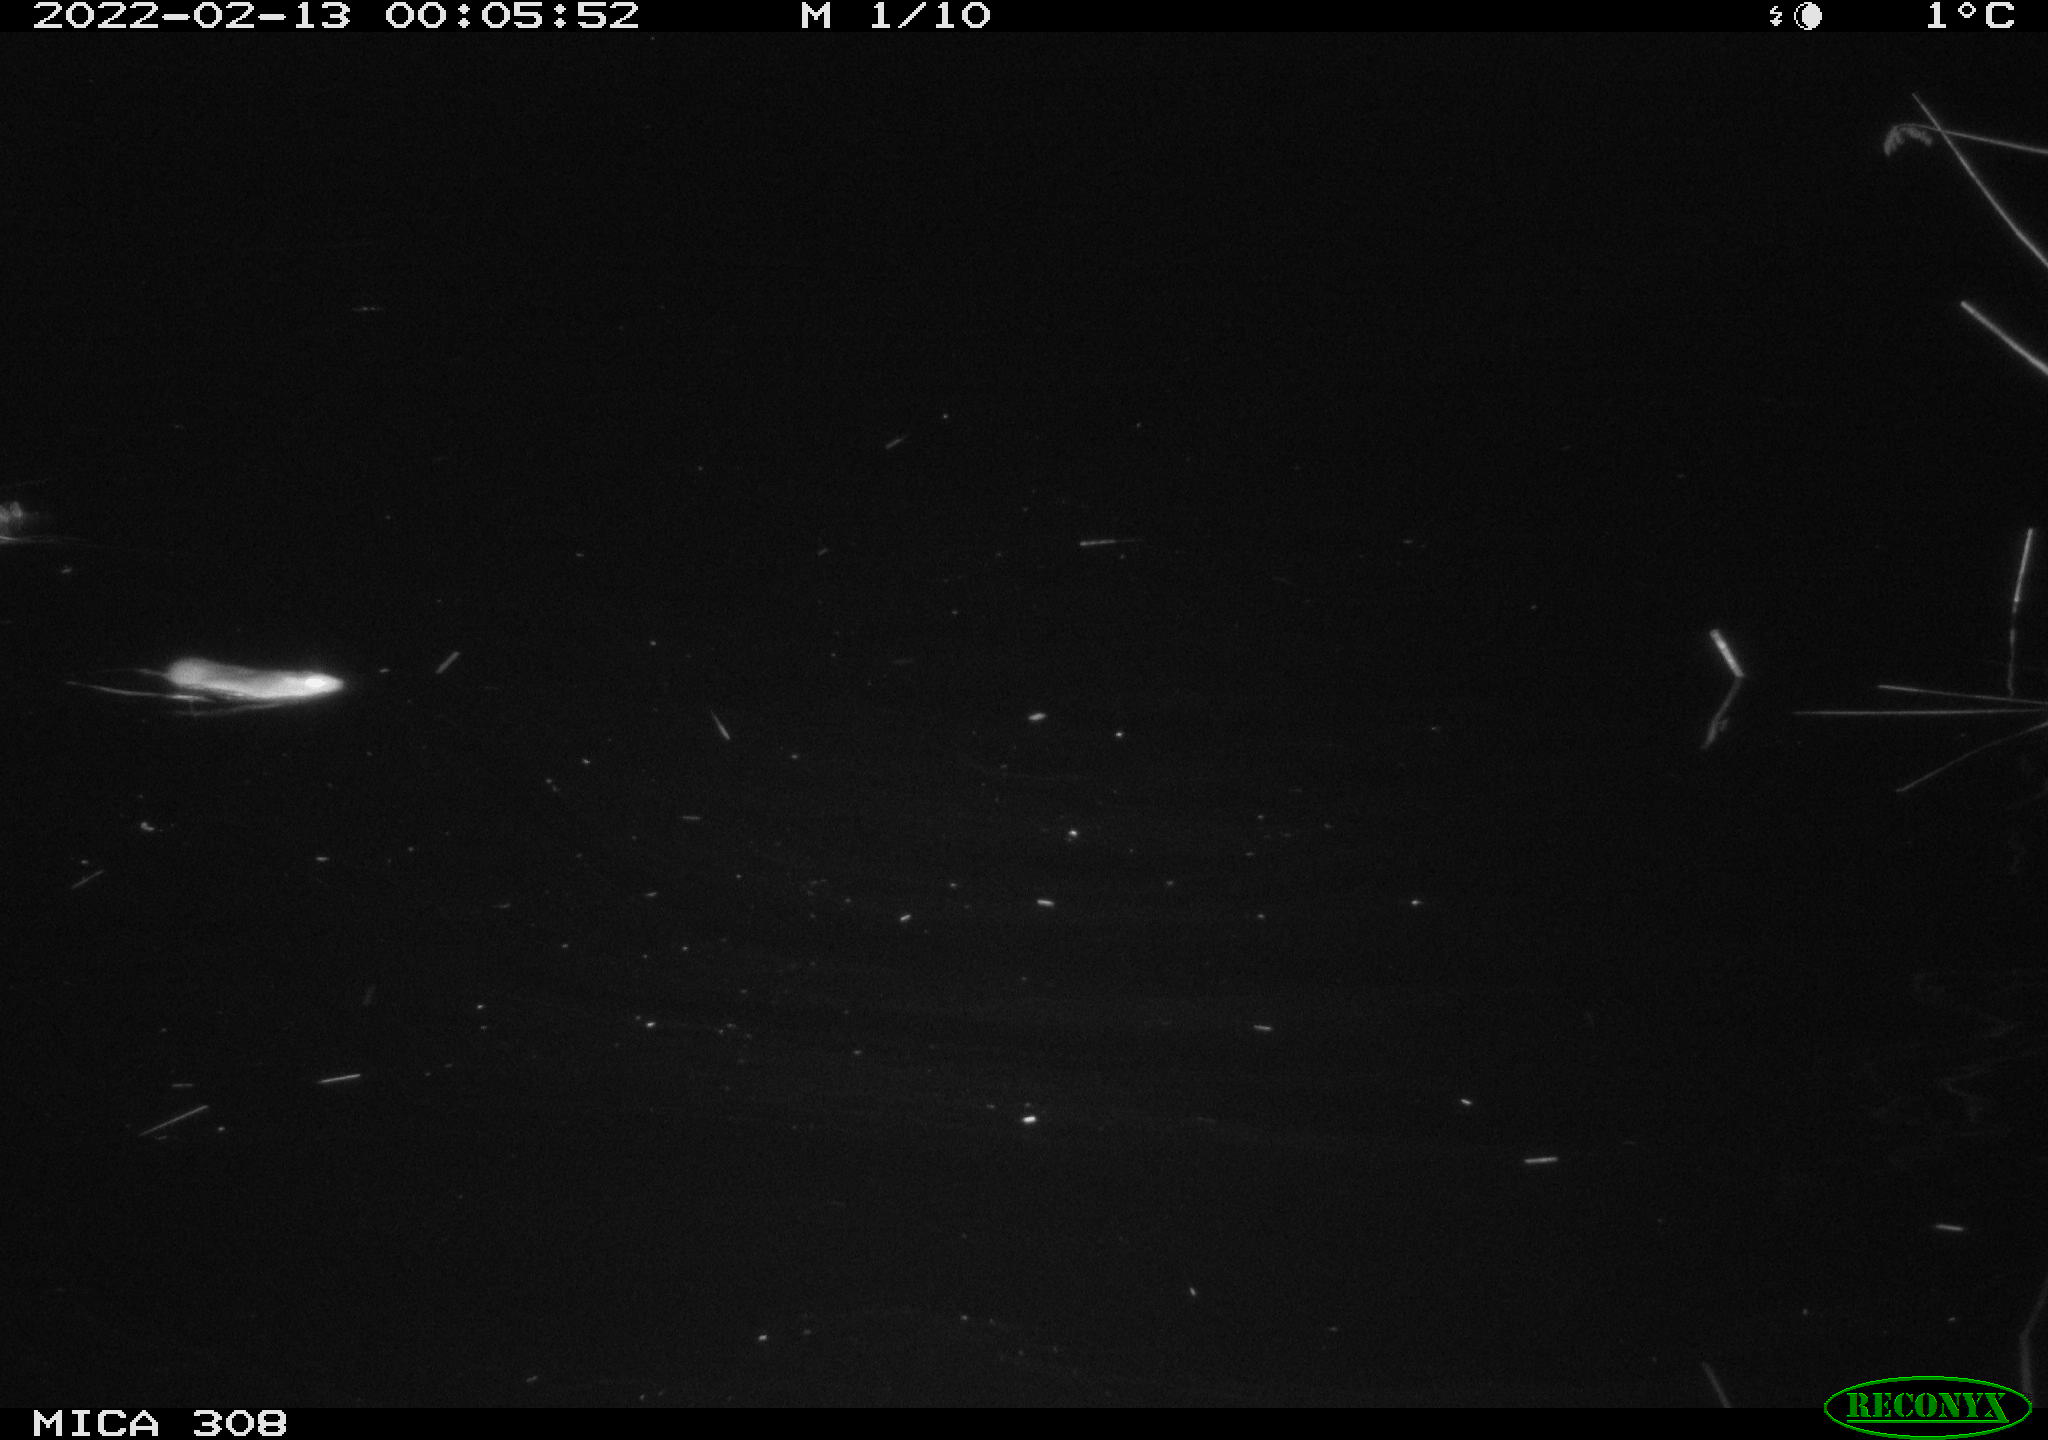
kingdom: Animalia
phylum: Chordata
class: Mammalia
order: Rodentia
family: Muridae
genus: Rattus
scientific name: Rattus norvegicus
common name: Brown rat
